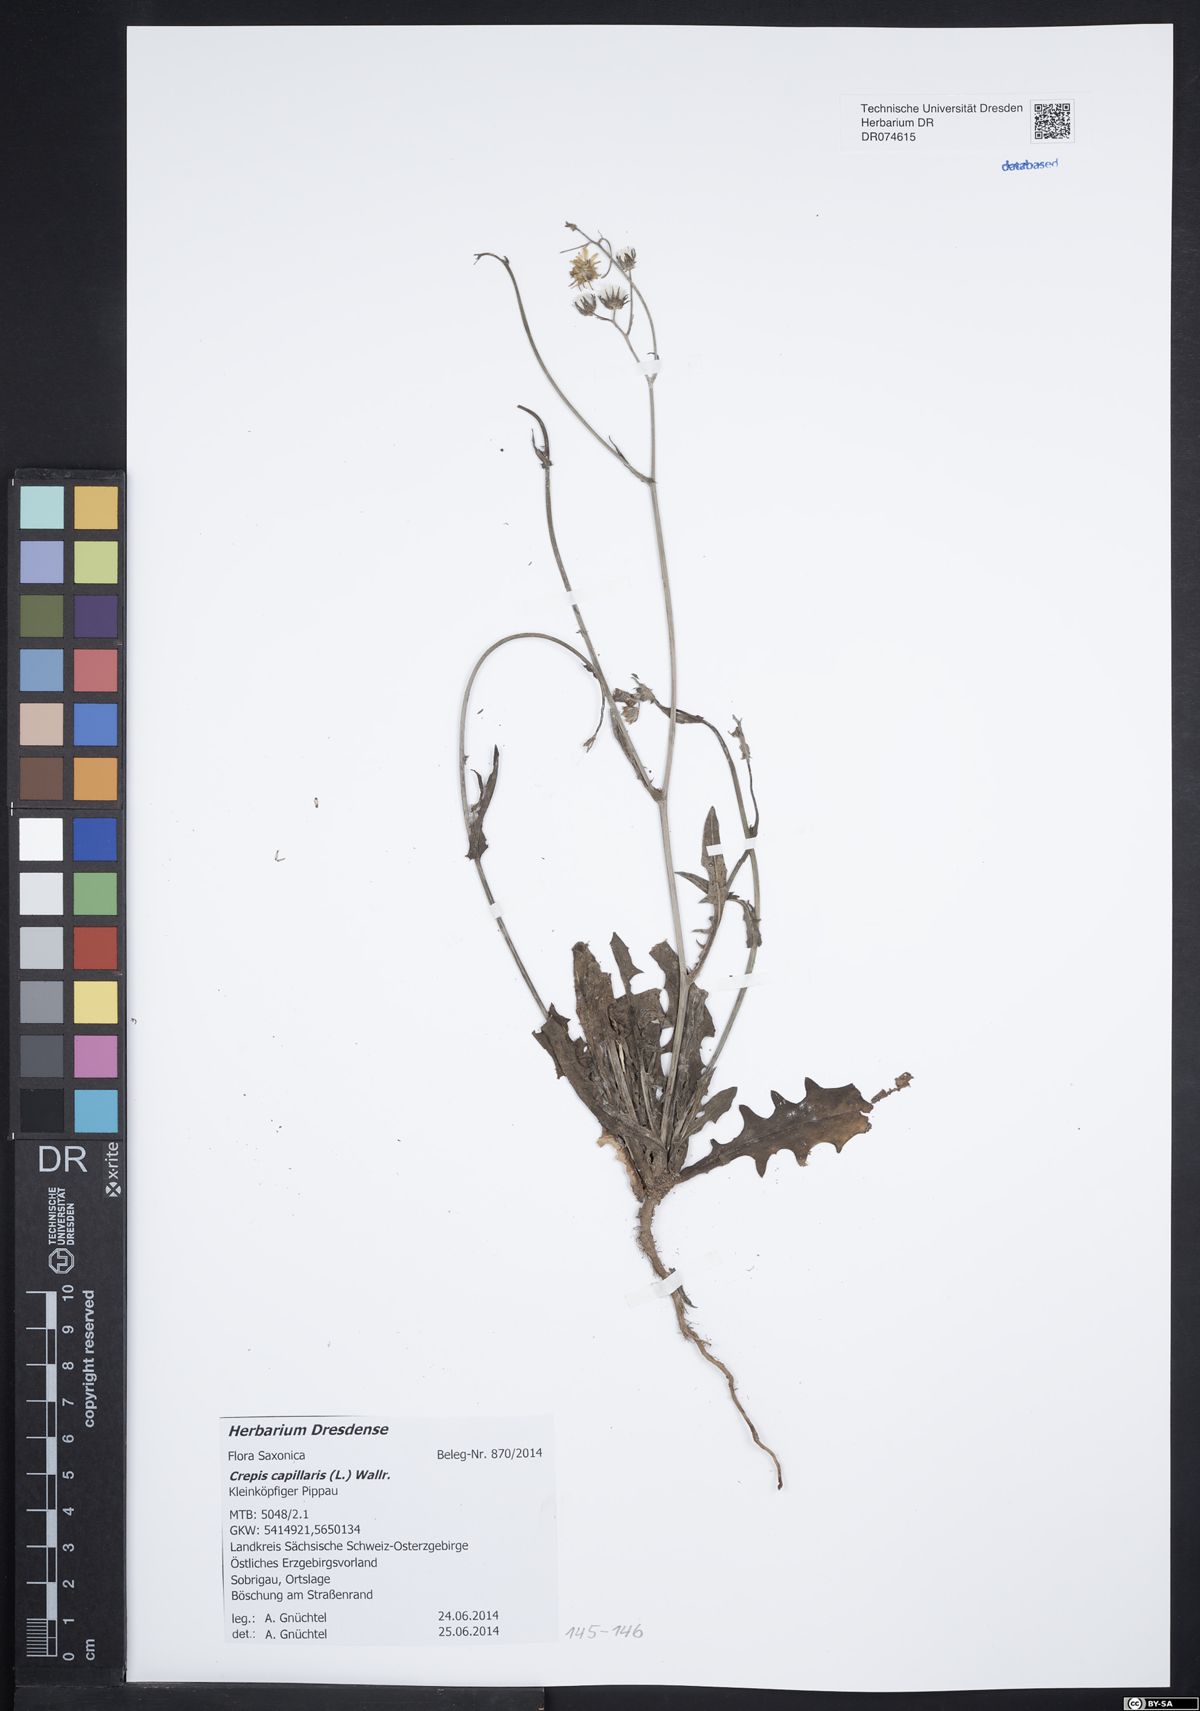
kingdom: Plantae
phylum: Tracheophyta
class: Magnoliopsida
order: Asterales
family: Asteraceae
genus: Crepis
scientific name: Crepis capillaris
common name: Smooth hawksbeard
